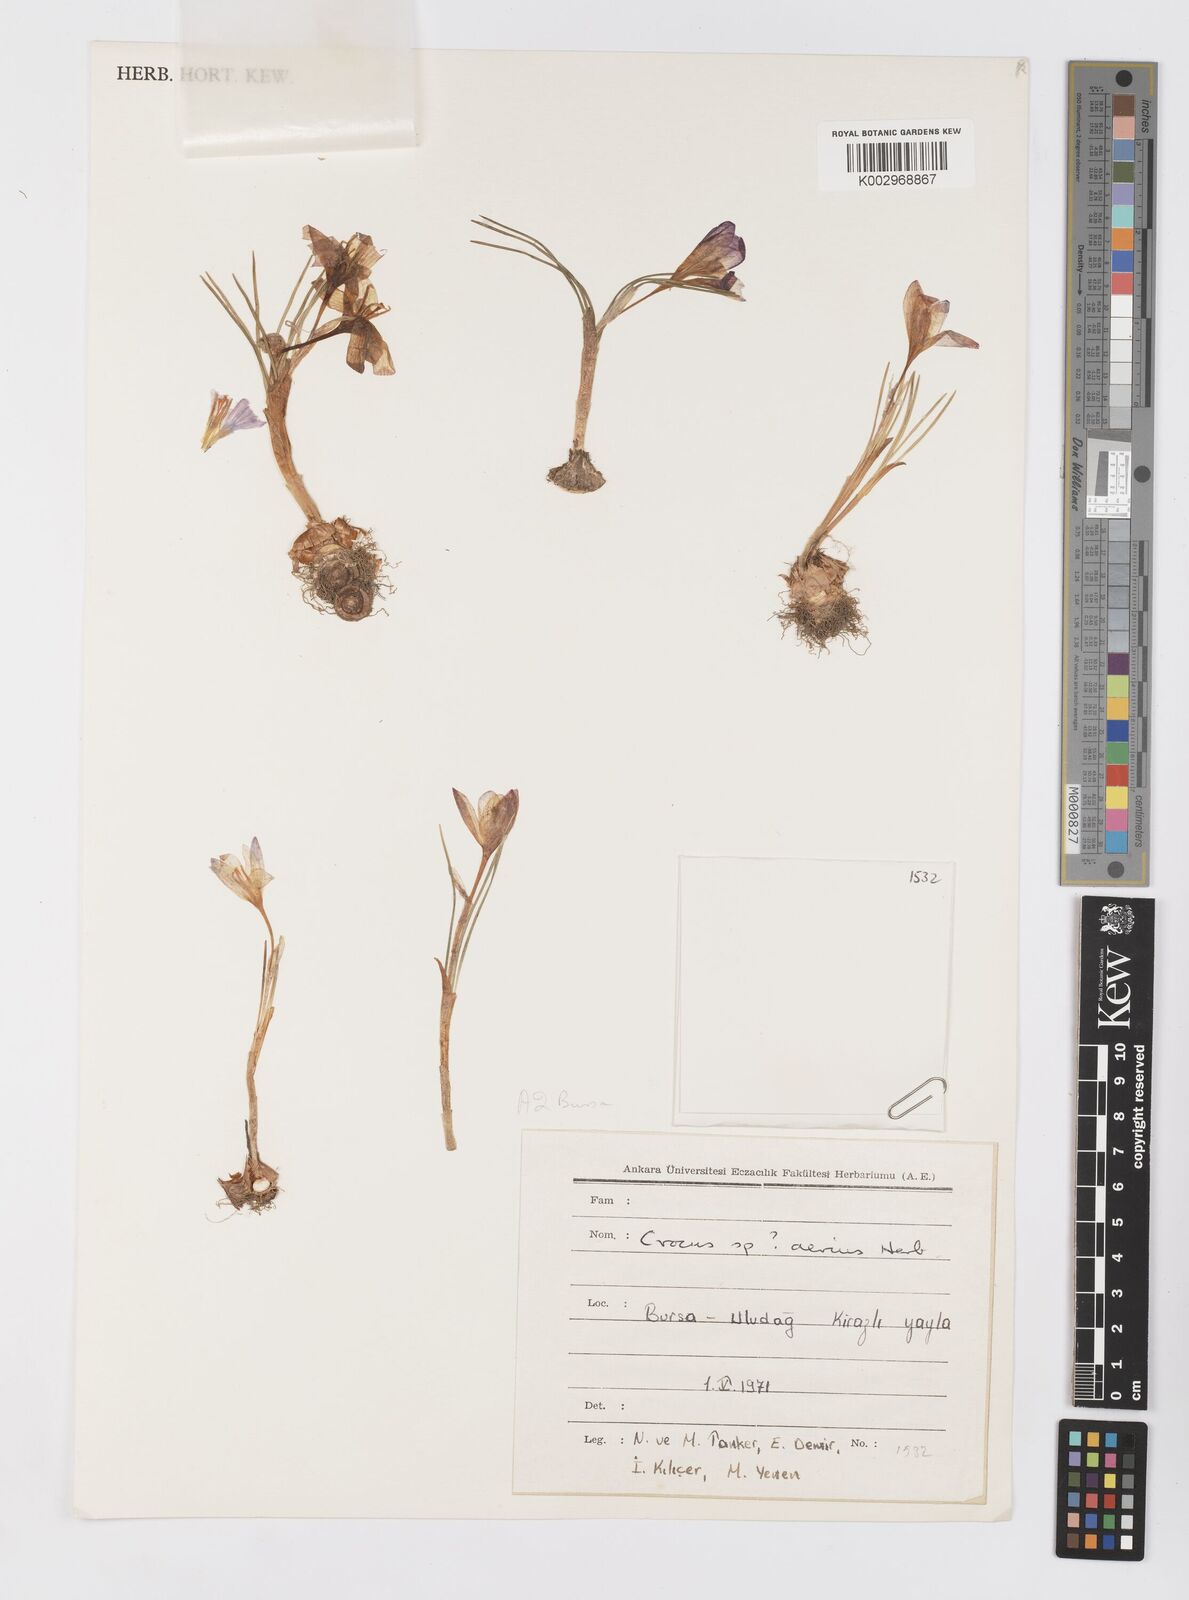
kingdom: Plantae
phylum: Tracheophyta
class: Liliopsida
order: Asparagales
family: Iridaceae
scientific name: Iridaceae
